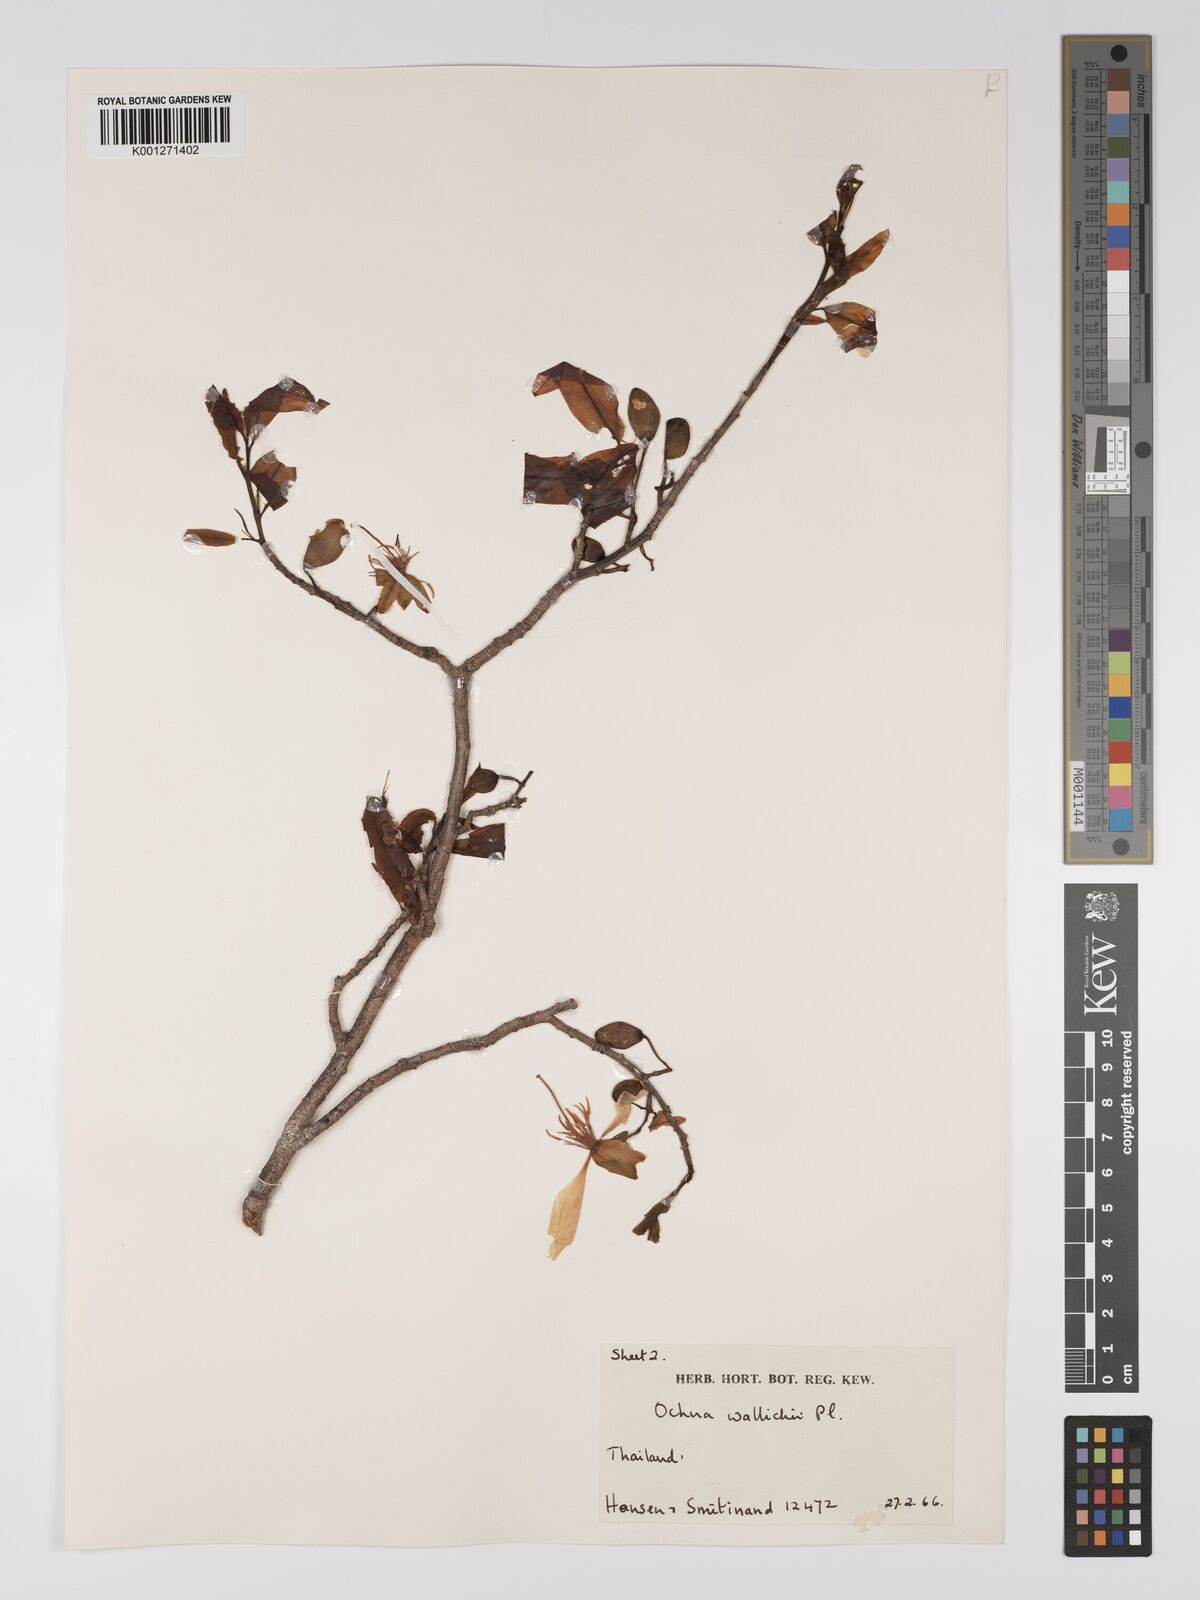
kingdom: Plantae
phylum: Tracheophyta
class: Magnoliopsida
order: Malpighiales
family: Ochnaceae
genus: Ochna
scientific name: Ochna integerrima
